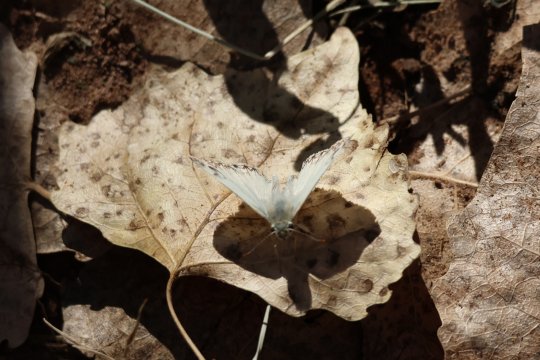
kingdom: Animalia
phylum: Arthropoda
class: Insecta
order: Lepidoptera
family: Hesperiidae
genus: Heliopetes
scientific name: Heliopetes ericetorum
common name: Northern White-Skipper
